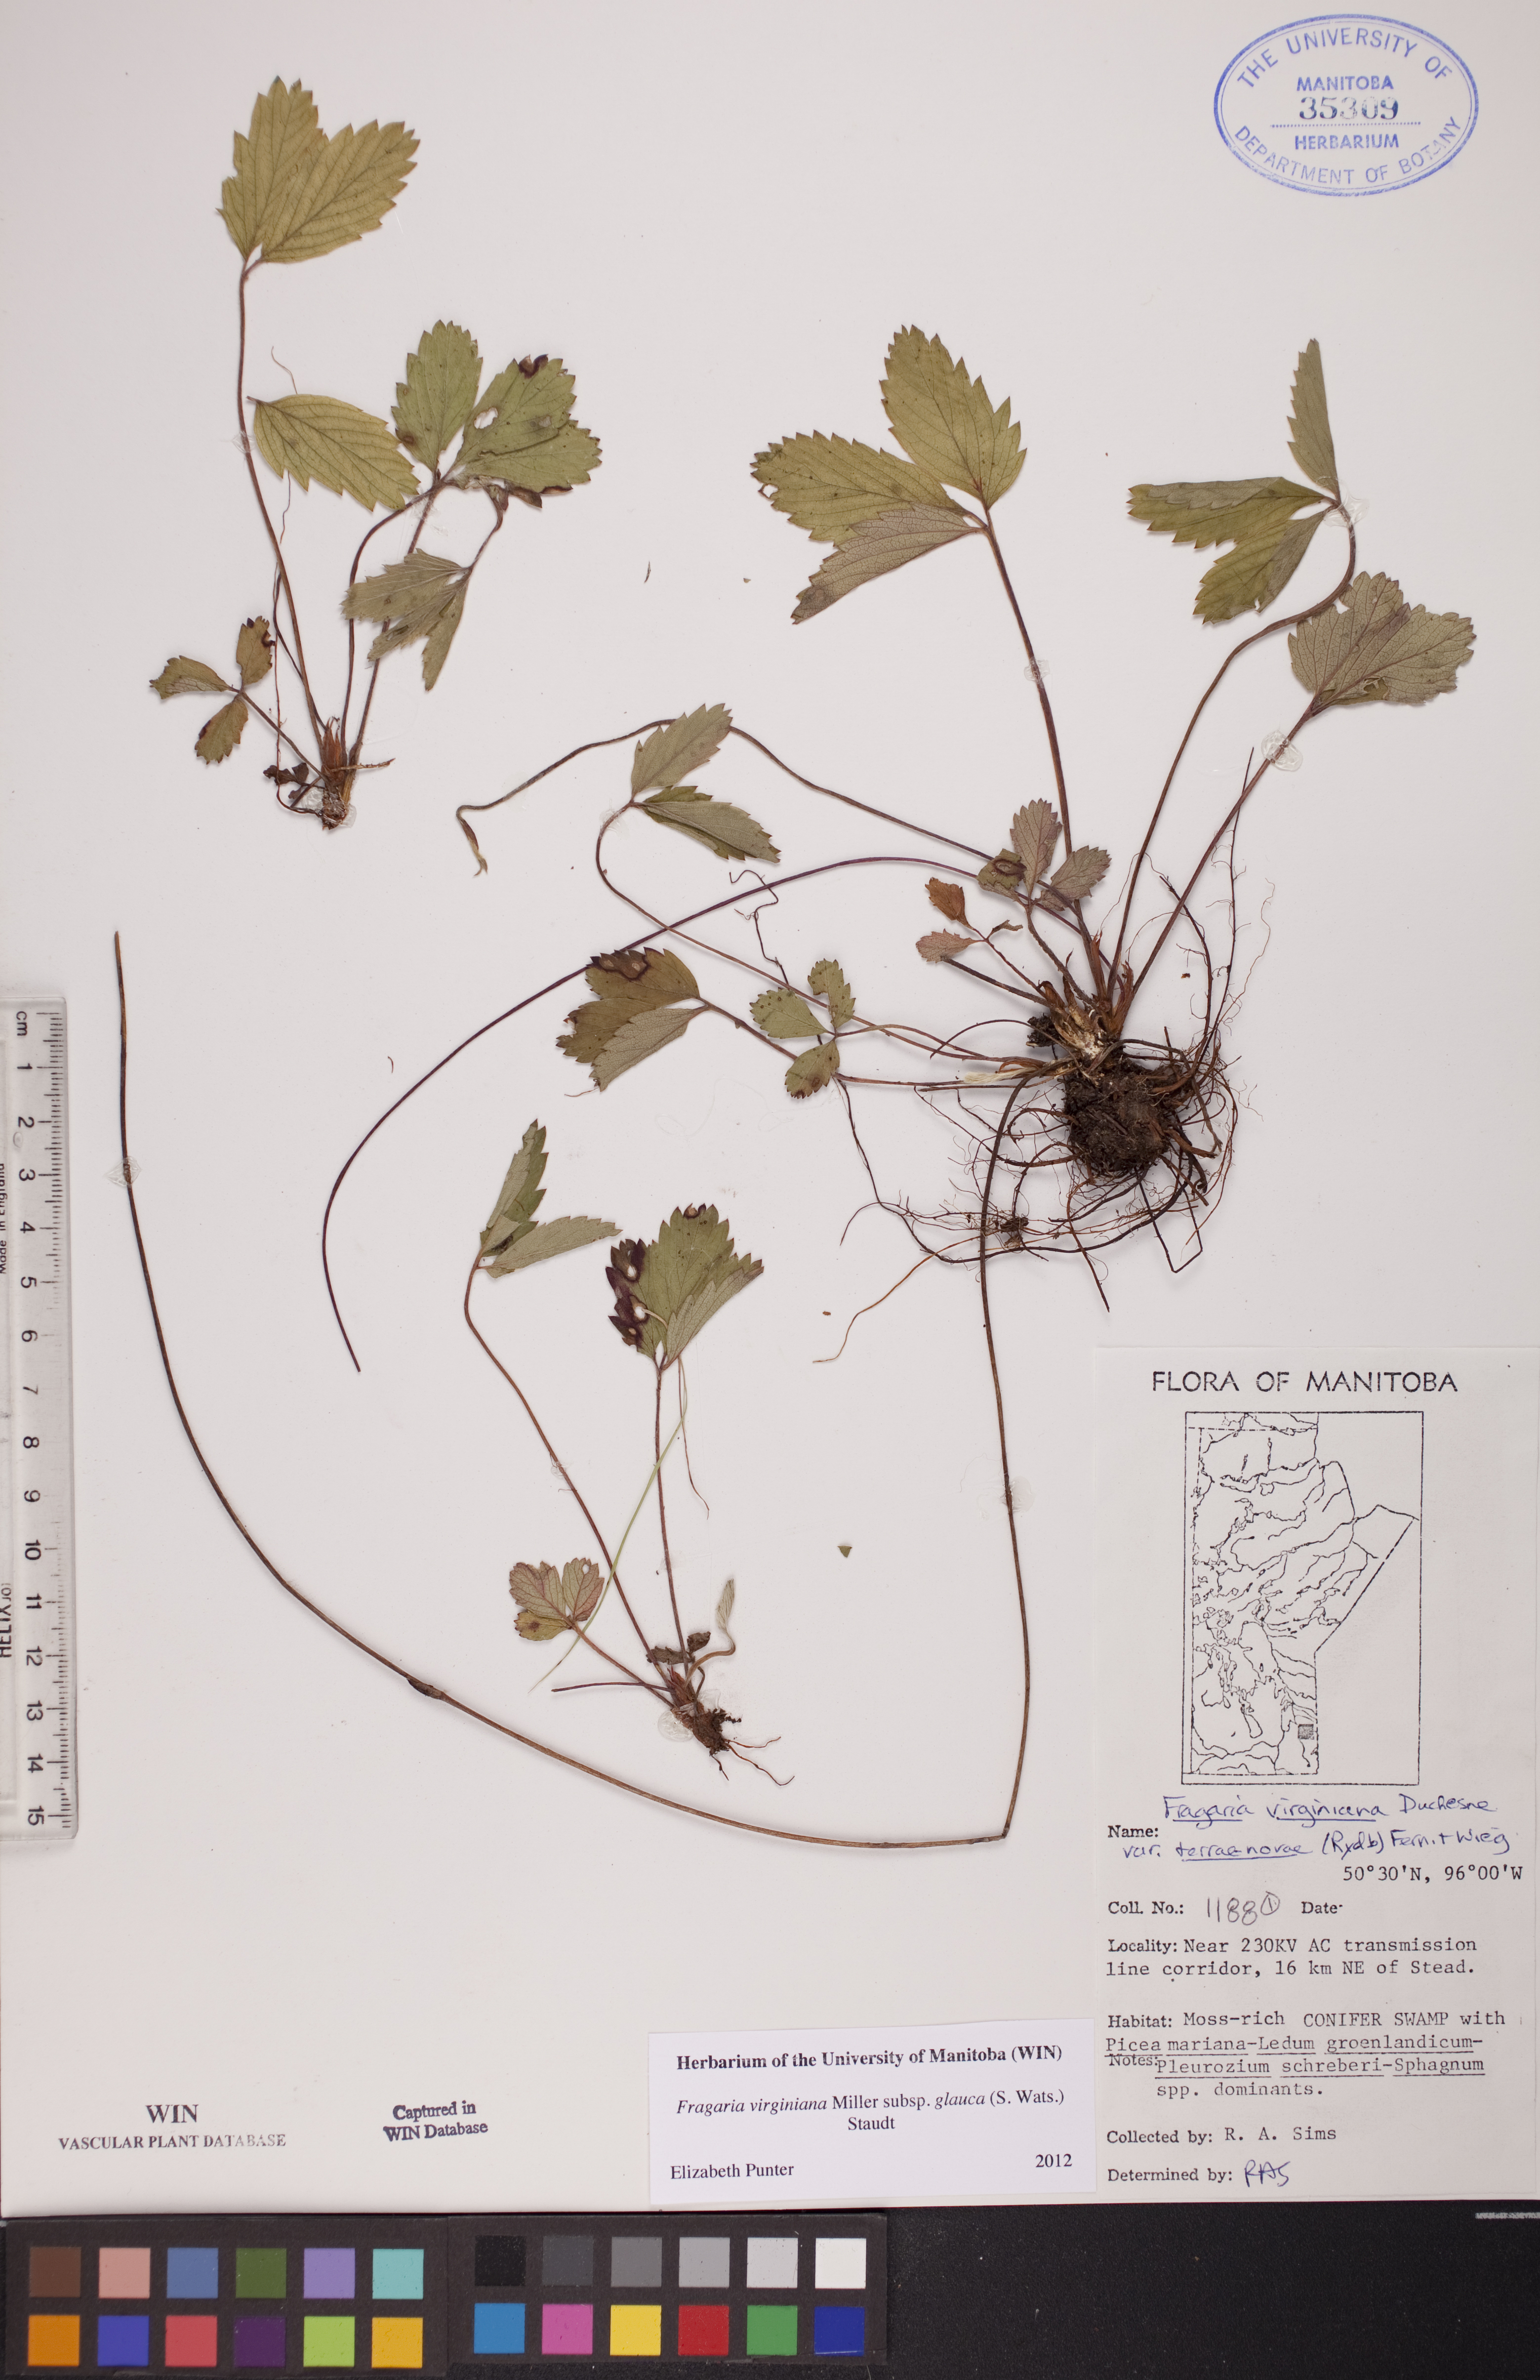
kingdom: Plantae
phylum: Tracheophyta
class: Magnoliopsida
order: Rosales
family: Rosaceae
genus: Fragaria
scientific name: Fragaria virginiana
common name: Thickleaved wild strawberry
